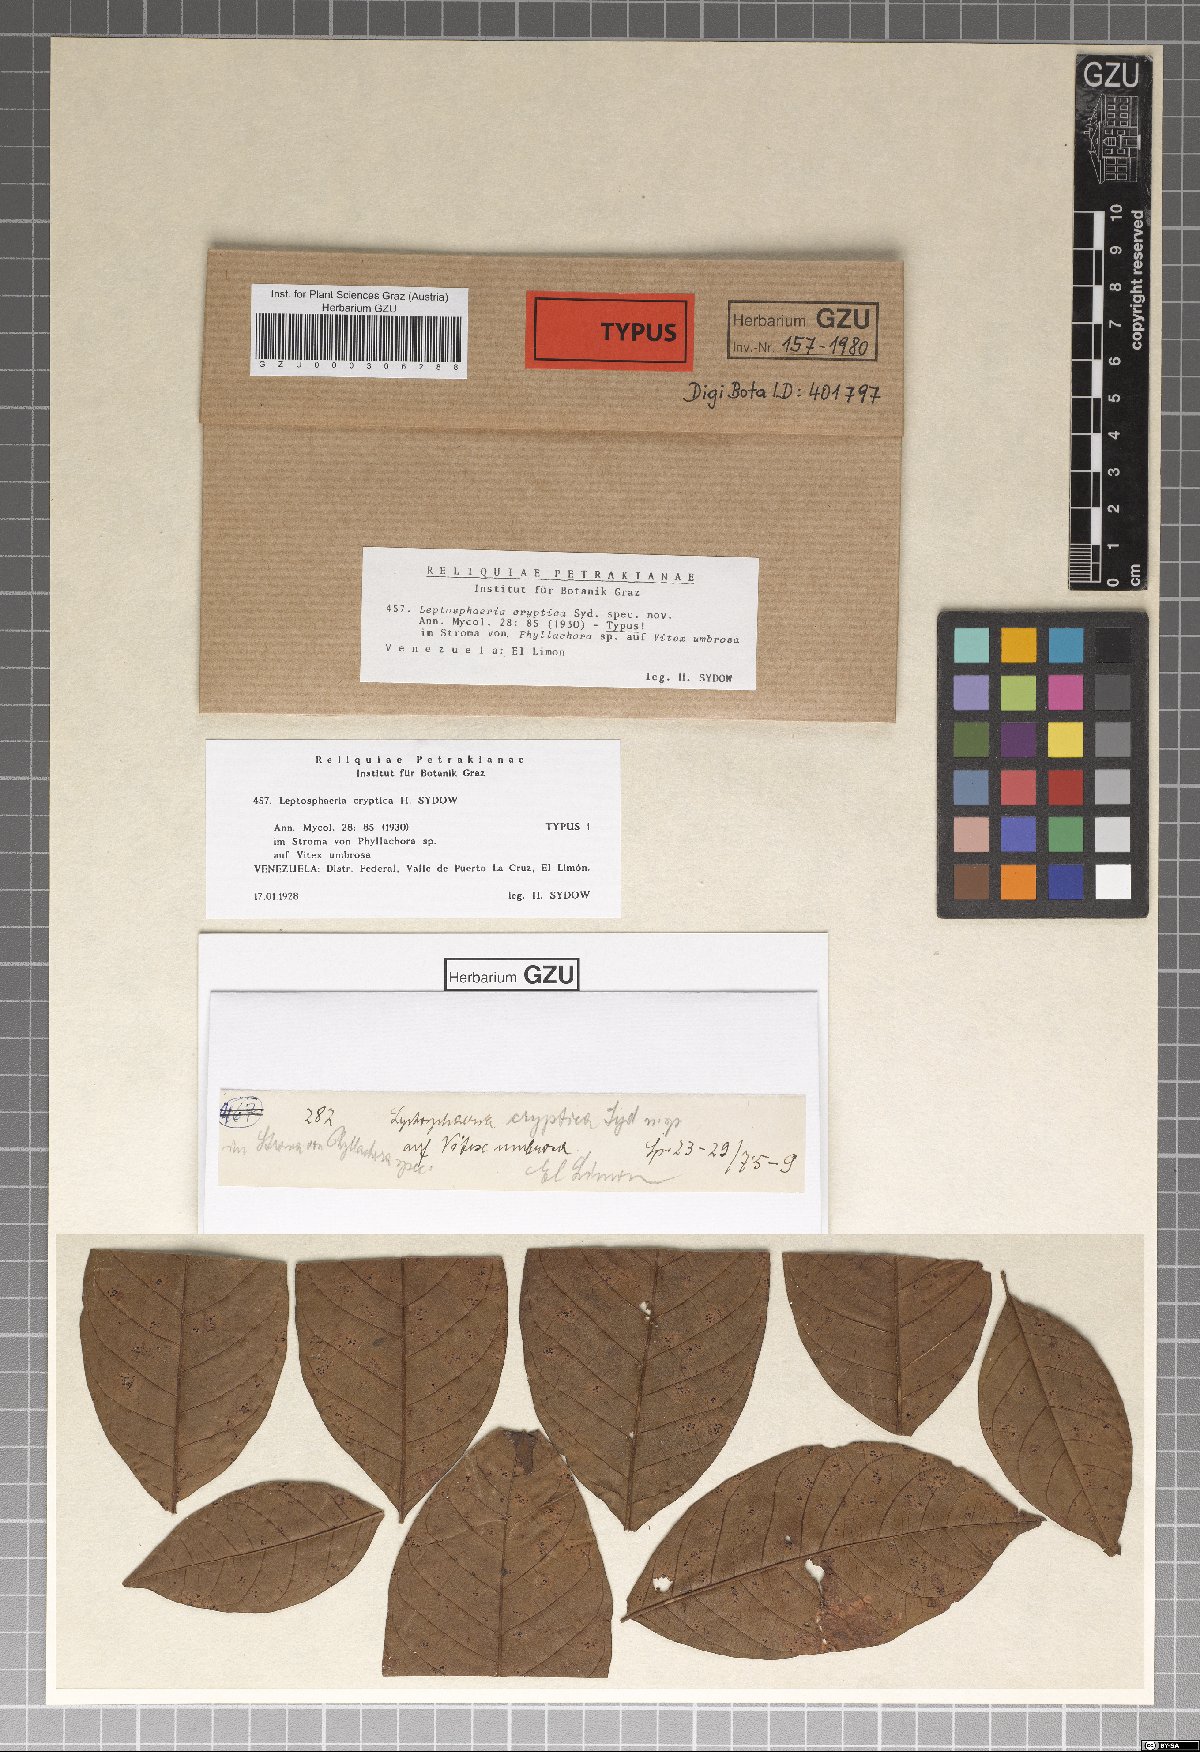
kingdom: Fungi
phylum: Ascomycota
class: Dothideomycetes
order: Pleosporales
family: Leptosphaeriaceae
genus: Leptosphaeria
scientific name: Leptosphaeria cryptica
